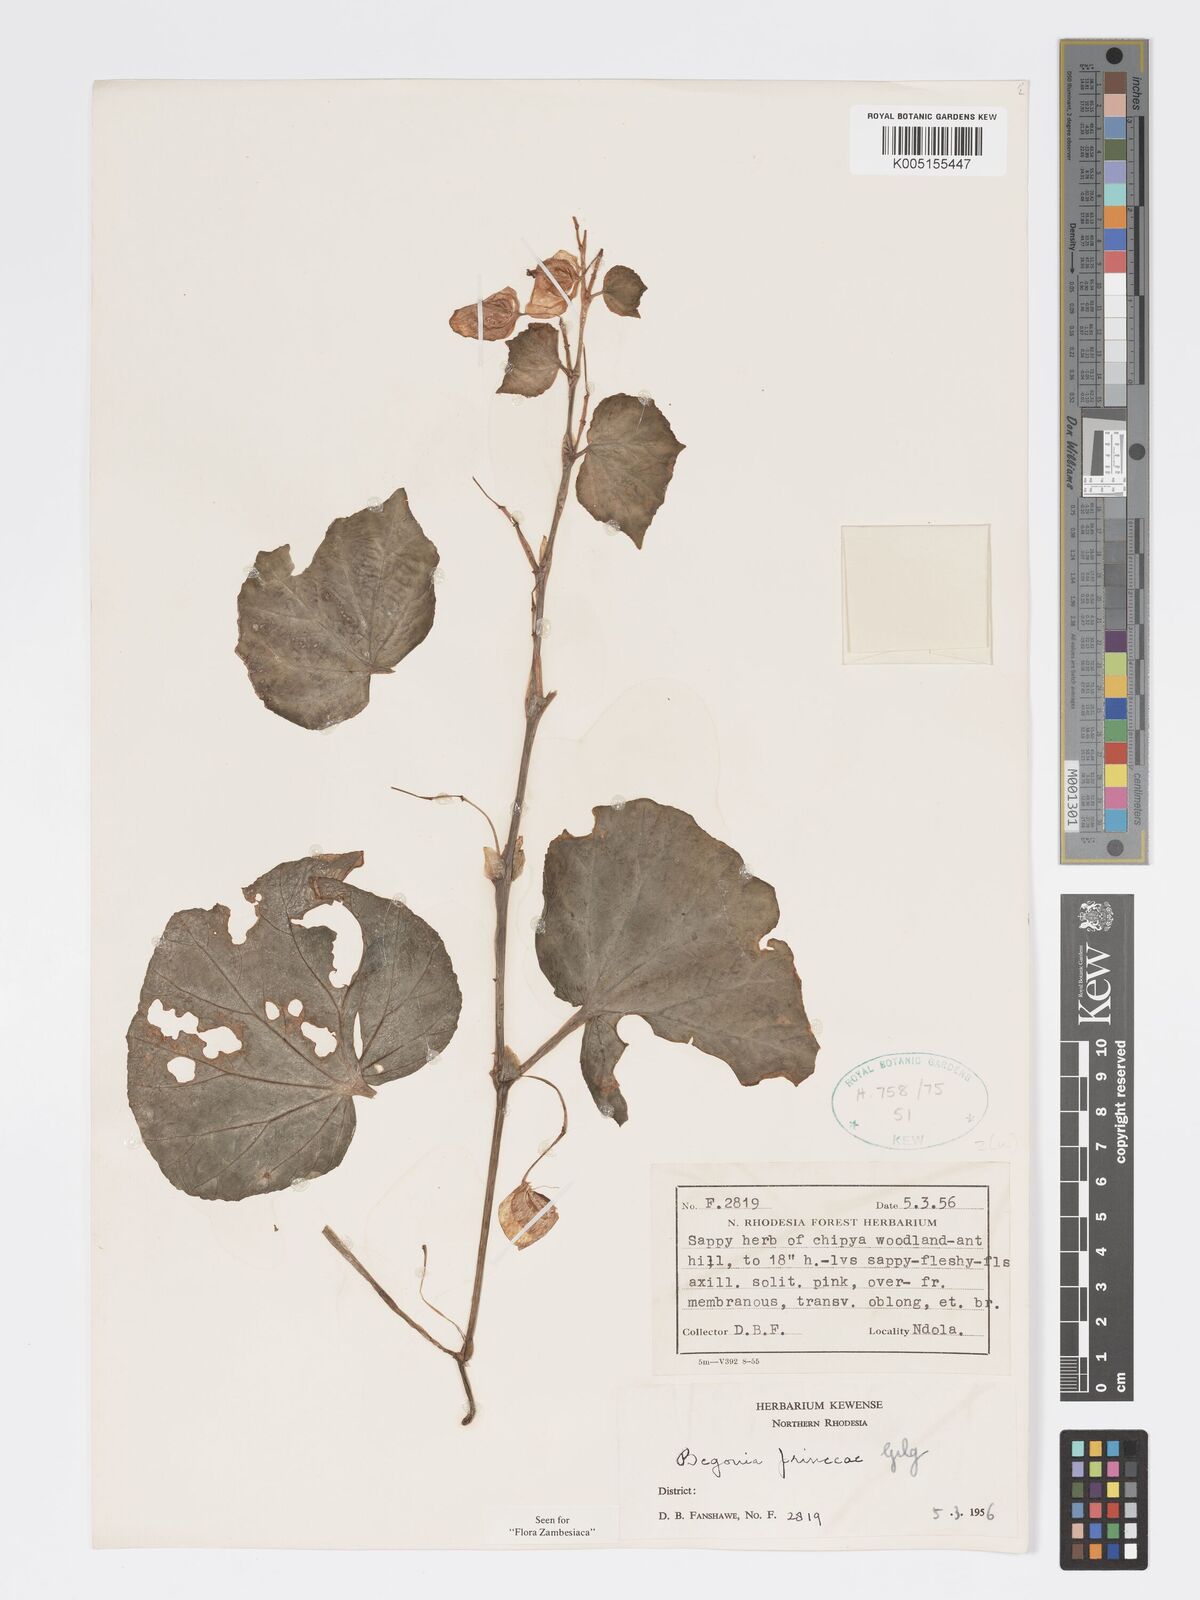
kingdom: Plantae
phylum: Tracheophyta
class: Magnoliopsida
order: Cucurbitales
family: Begoniaceae
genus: Begonia
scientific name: Begonia princeae
